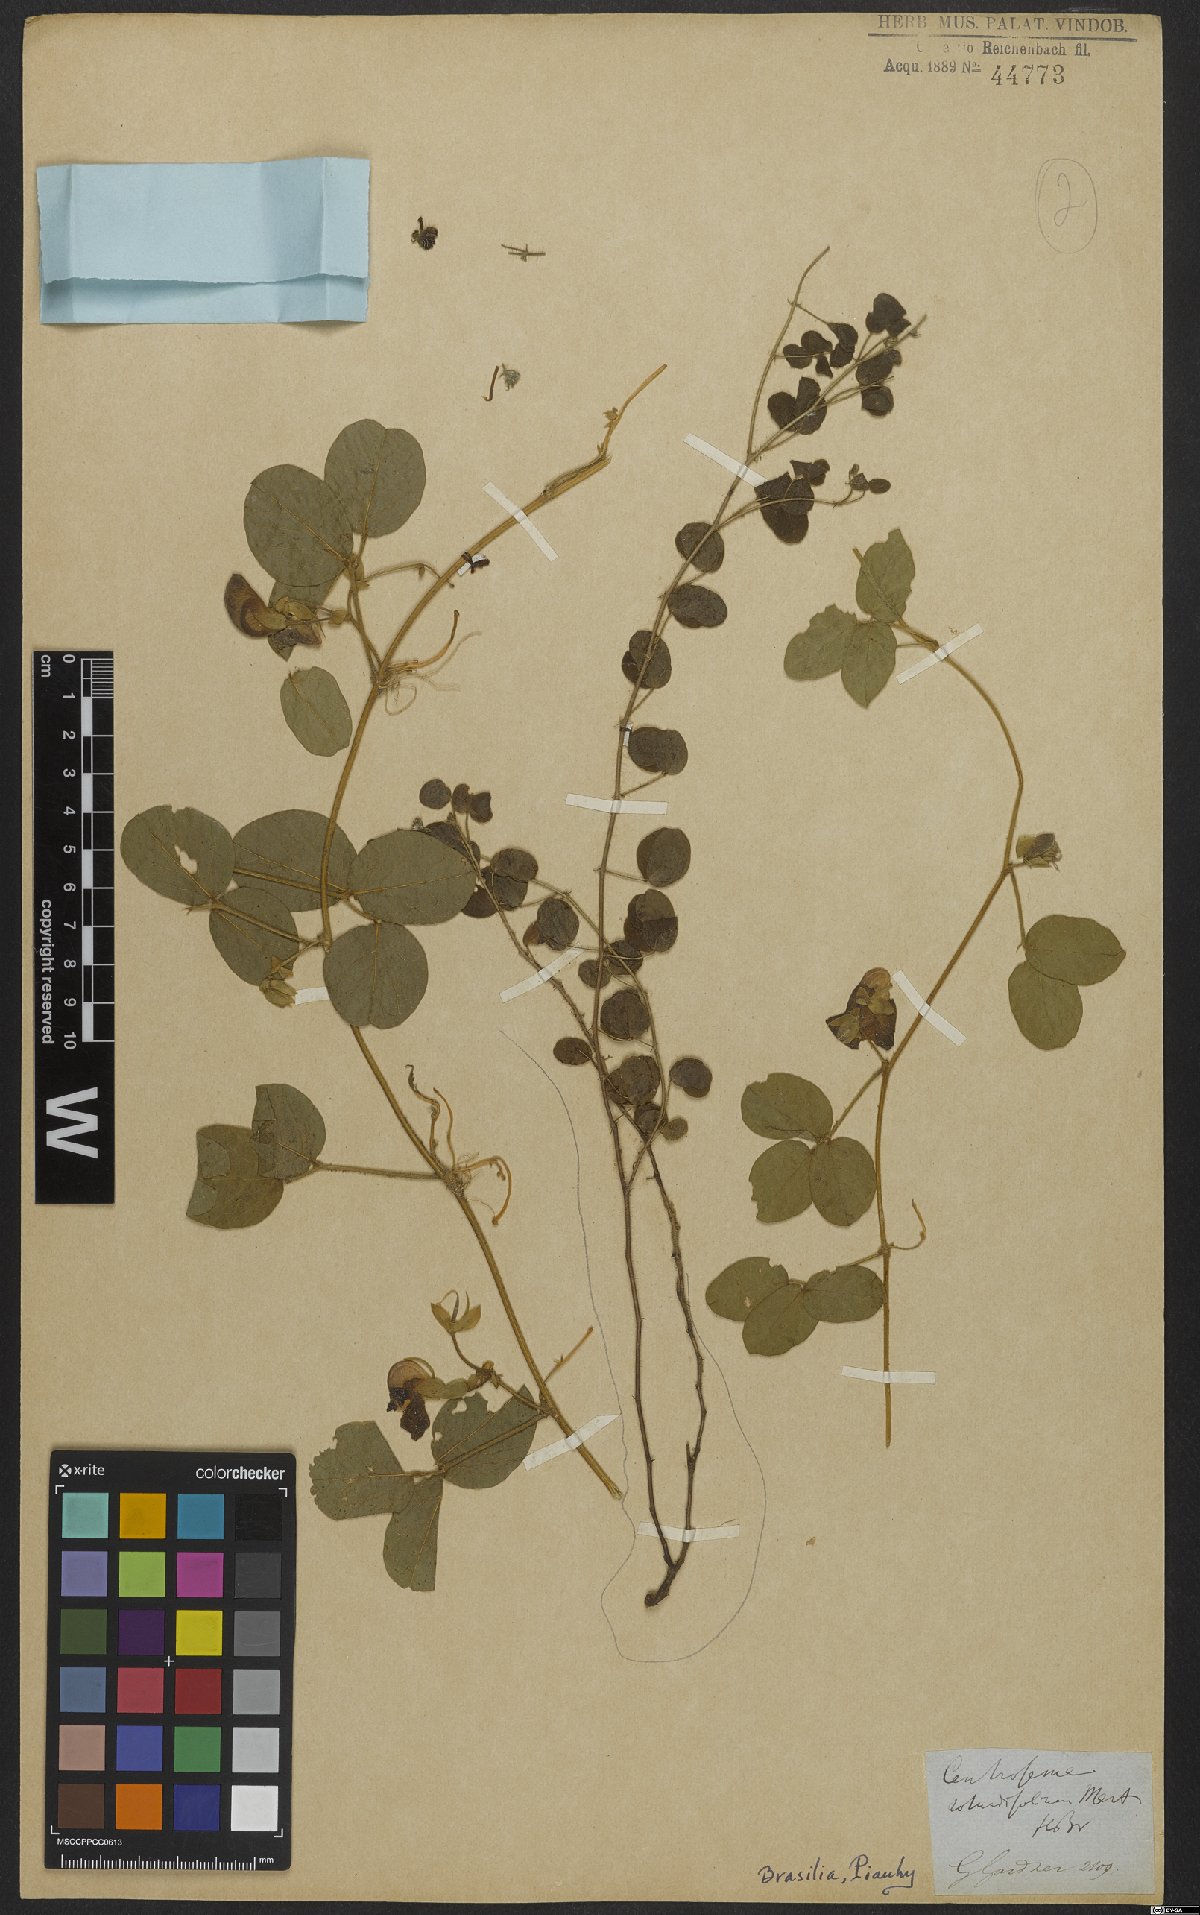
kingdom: Plantae
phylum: Tracheophyta
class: Magnoliopsida
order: Fabales
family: Fabaceae
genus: Centrosema
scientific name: Centrosema rotundifolium
